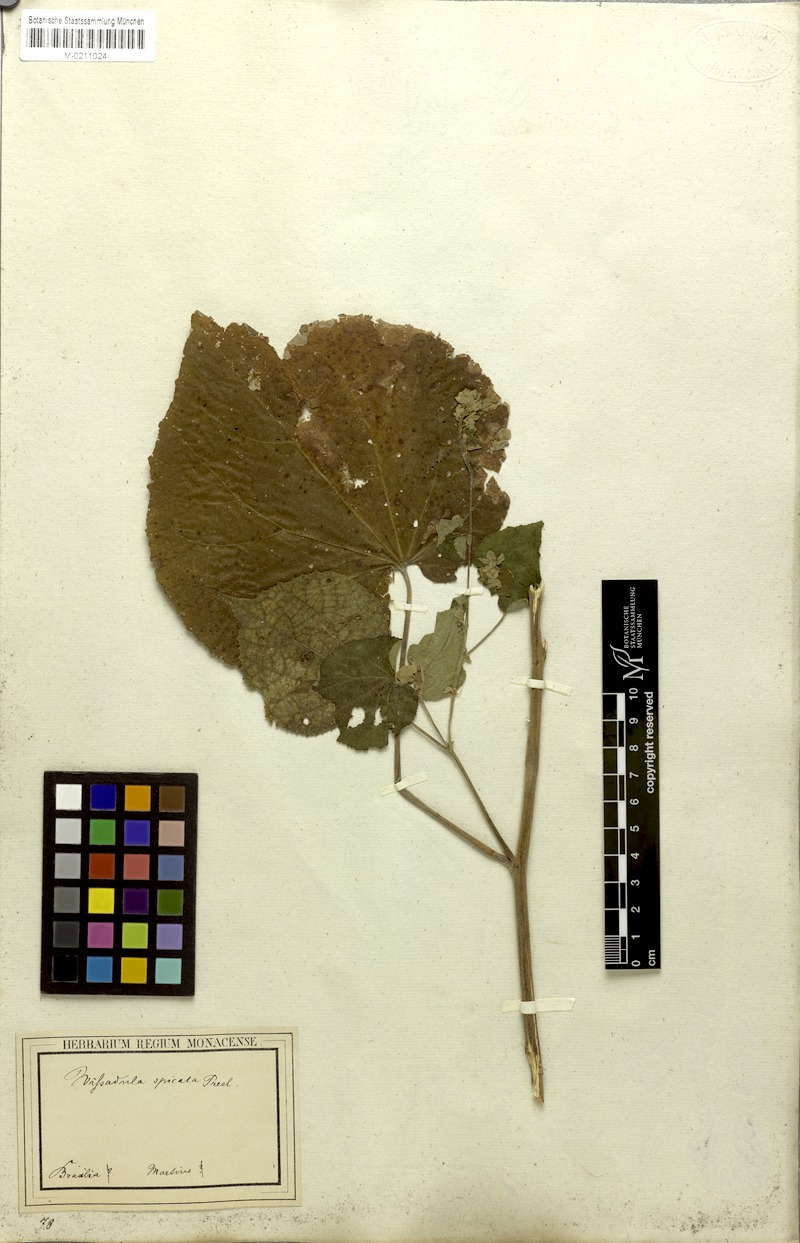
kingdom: Plantae
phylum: Tracheophyta
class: Magnoliopsida
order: Malvales
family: Malvaceae
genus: Allobriquetia
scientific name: Allobriquetia spicata
